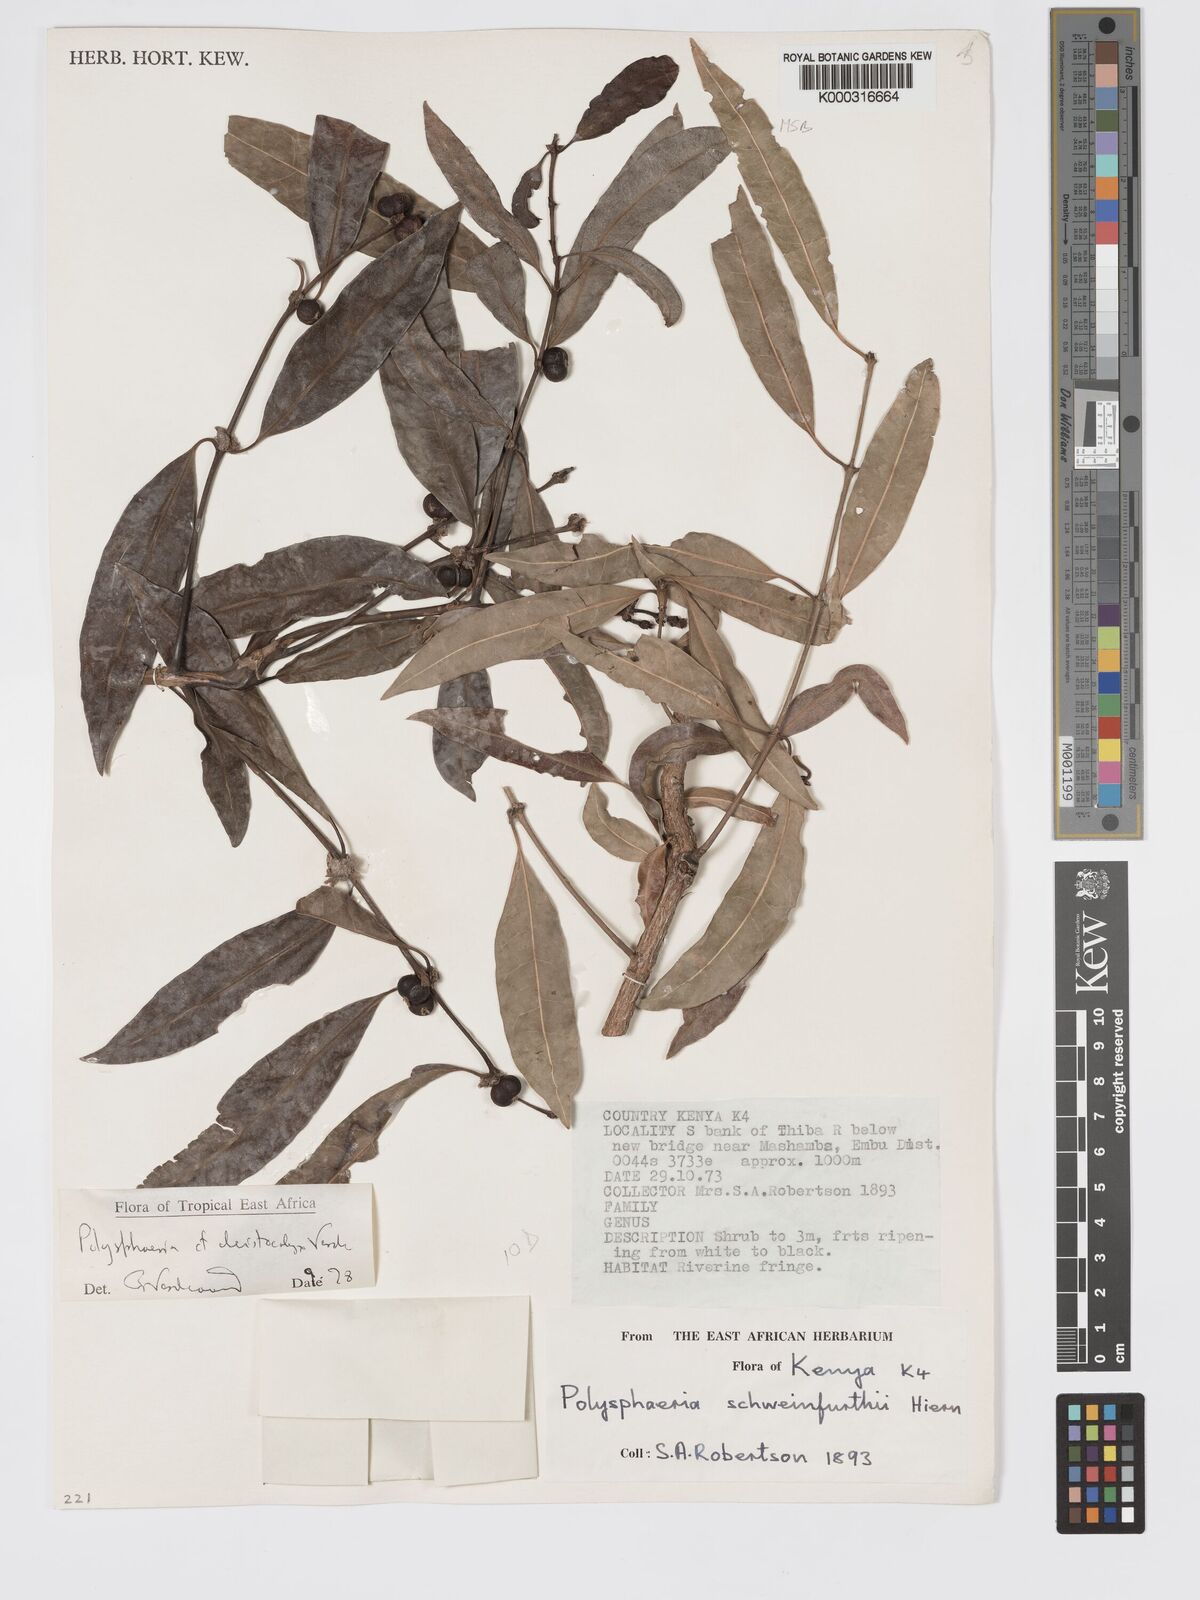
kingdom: Plantae
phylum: Tracheophyta
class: Magnoliopsida
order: Gentianales
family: Rubiaceae
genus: Polysphaeria
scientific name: Polysphaeria cleistocalyx
